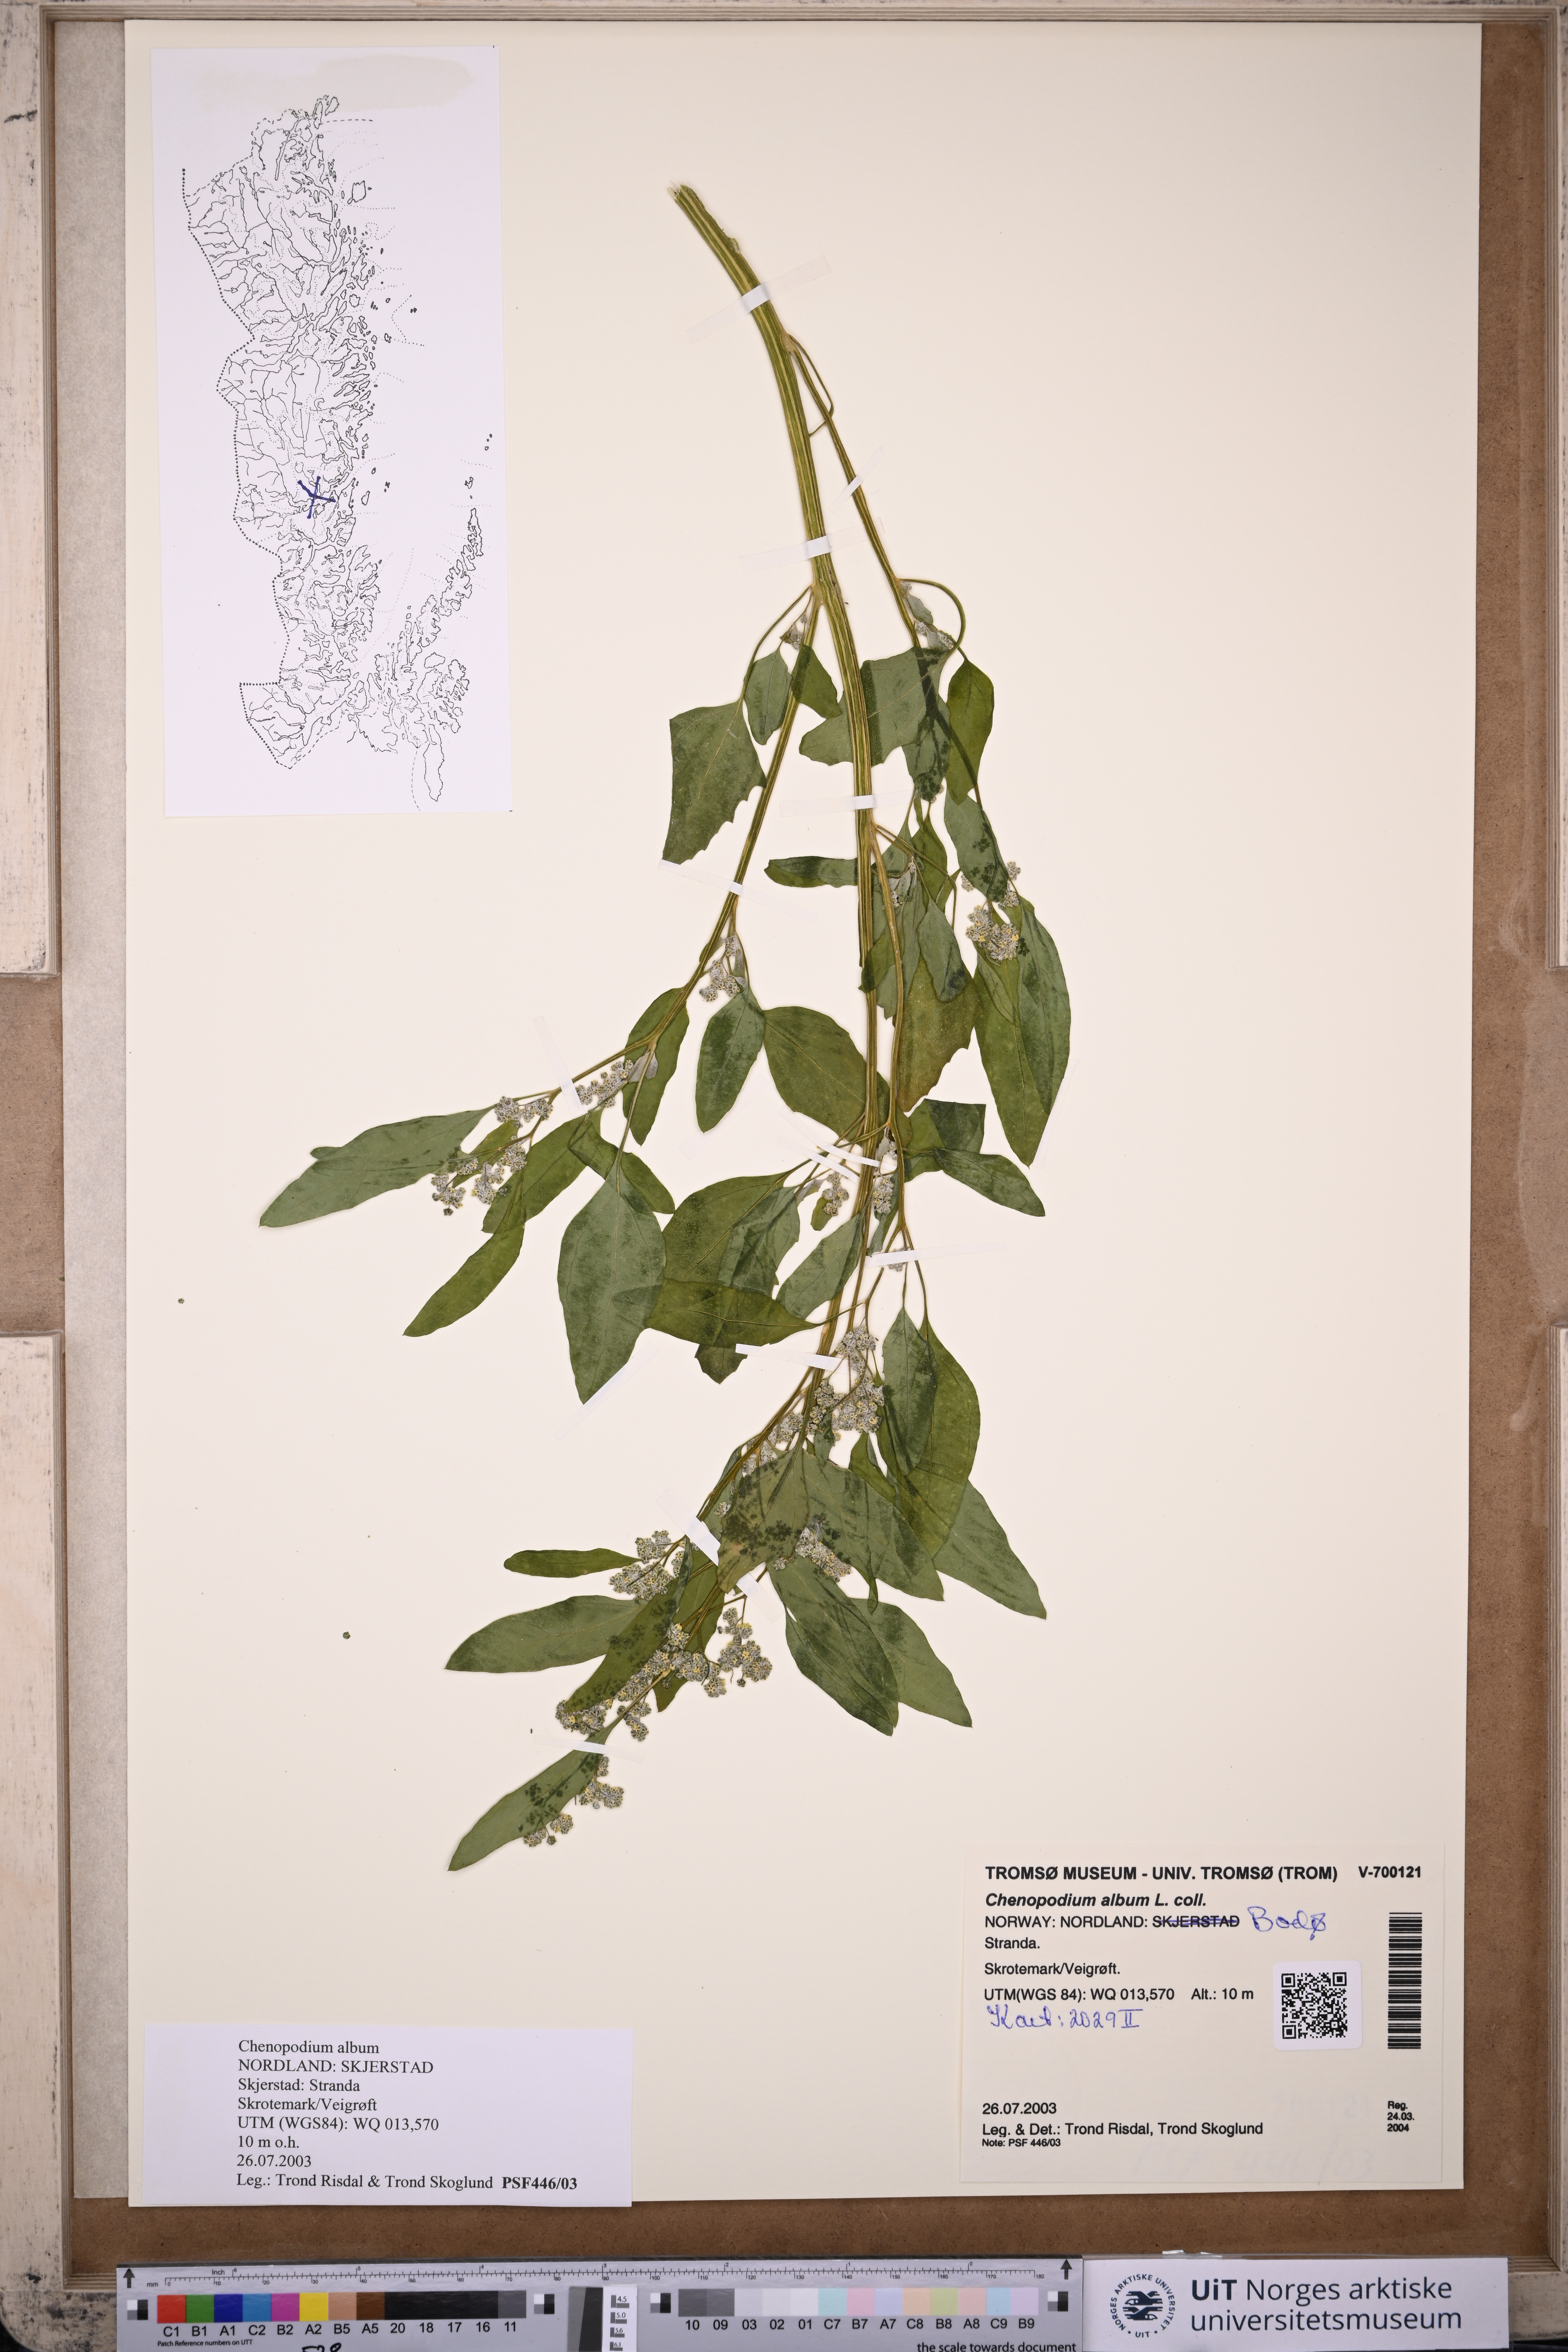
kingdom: Plantae
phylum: Tracheophyta
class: Magnoliopsida
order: Caryophyllales
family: Amaranthaceae
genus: Chenopodium
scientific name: Chenopodium album
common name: Fat-hen
